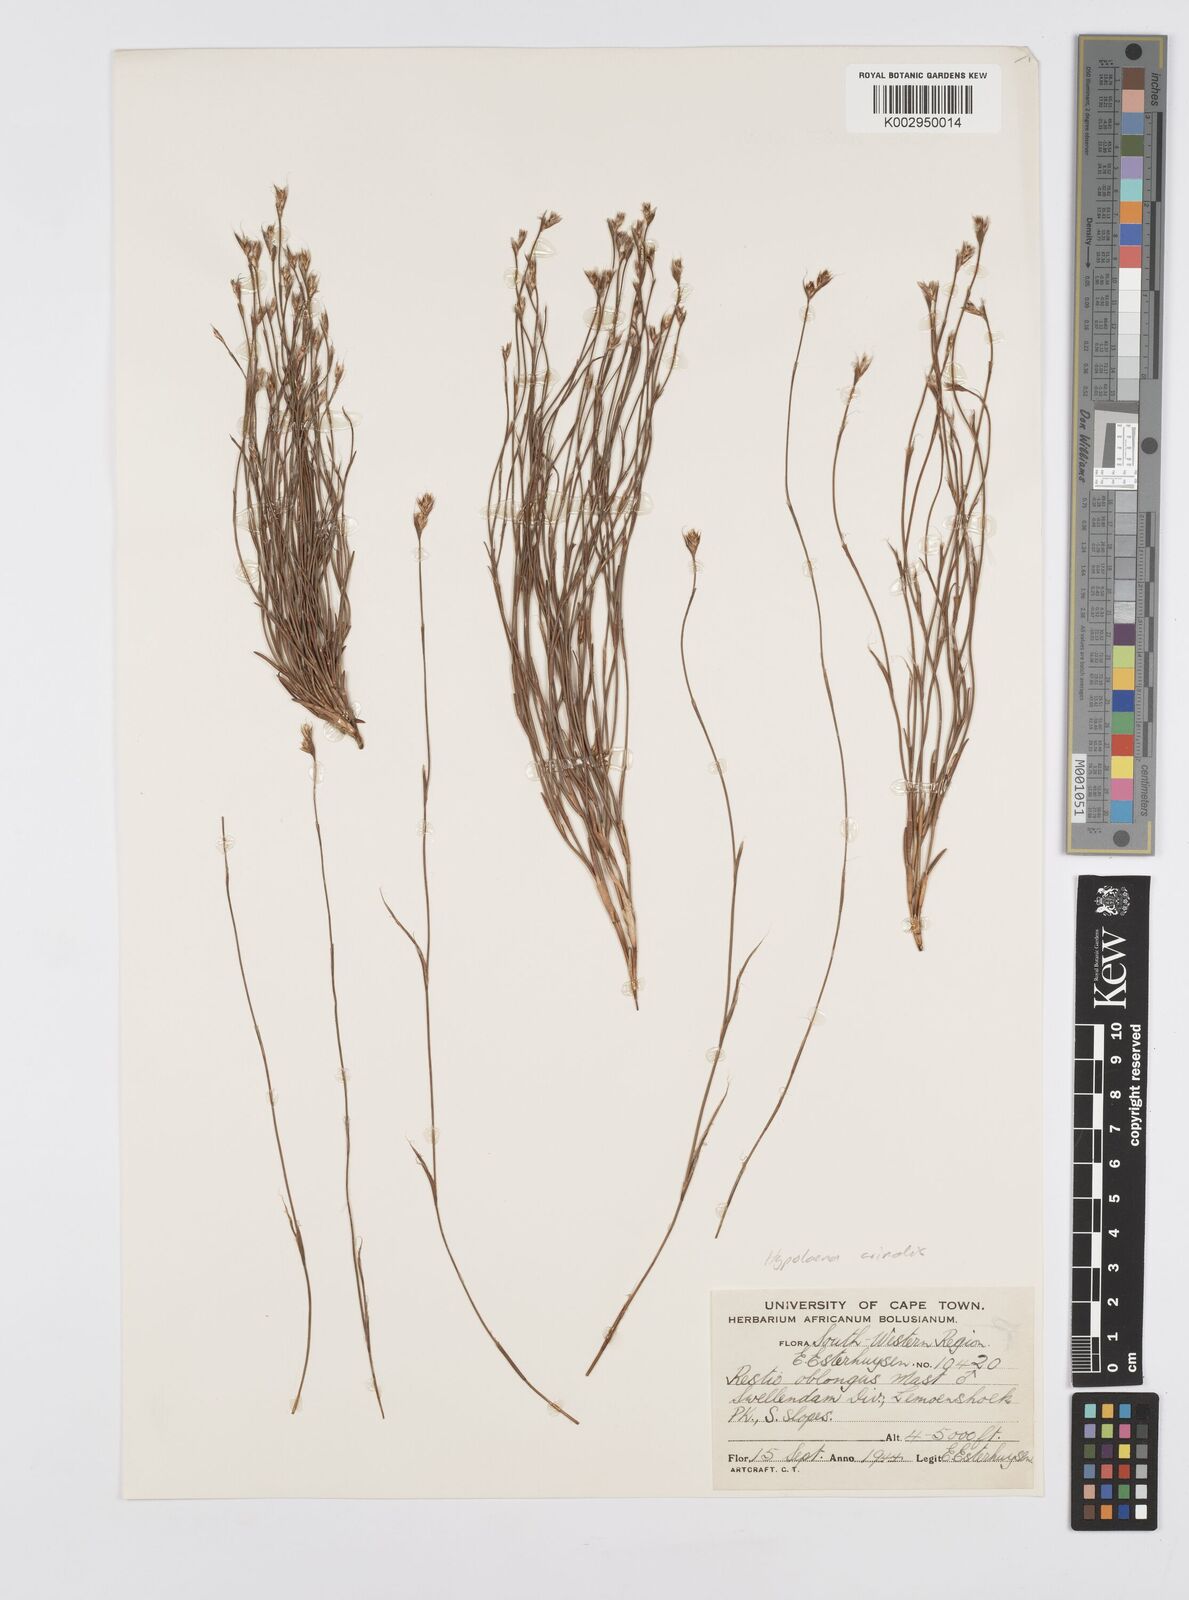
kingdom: Plantae
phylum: Tracheophyta
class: Liliopsida
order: Poales
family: Restionaceae
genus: Anthochortus
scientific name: Anthochortus
